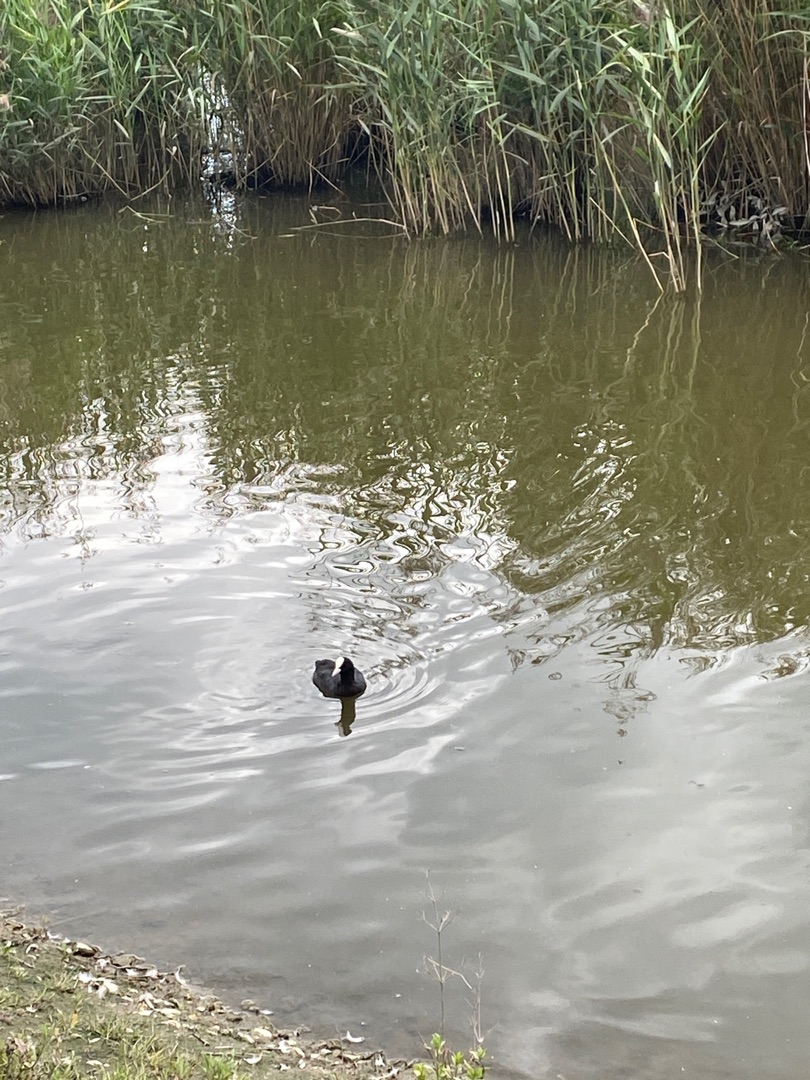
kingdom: Animalia
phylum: Chordata
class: Aves
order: Gruiformes
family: Rallidae
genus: Fulica
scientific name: Fulica atra
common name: Blishøne
